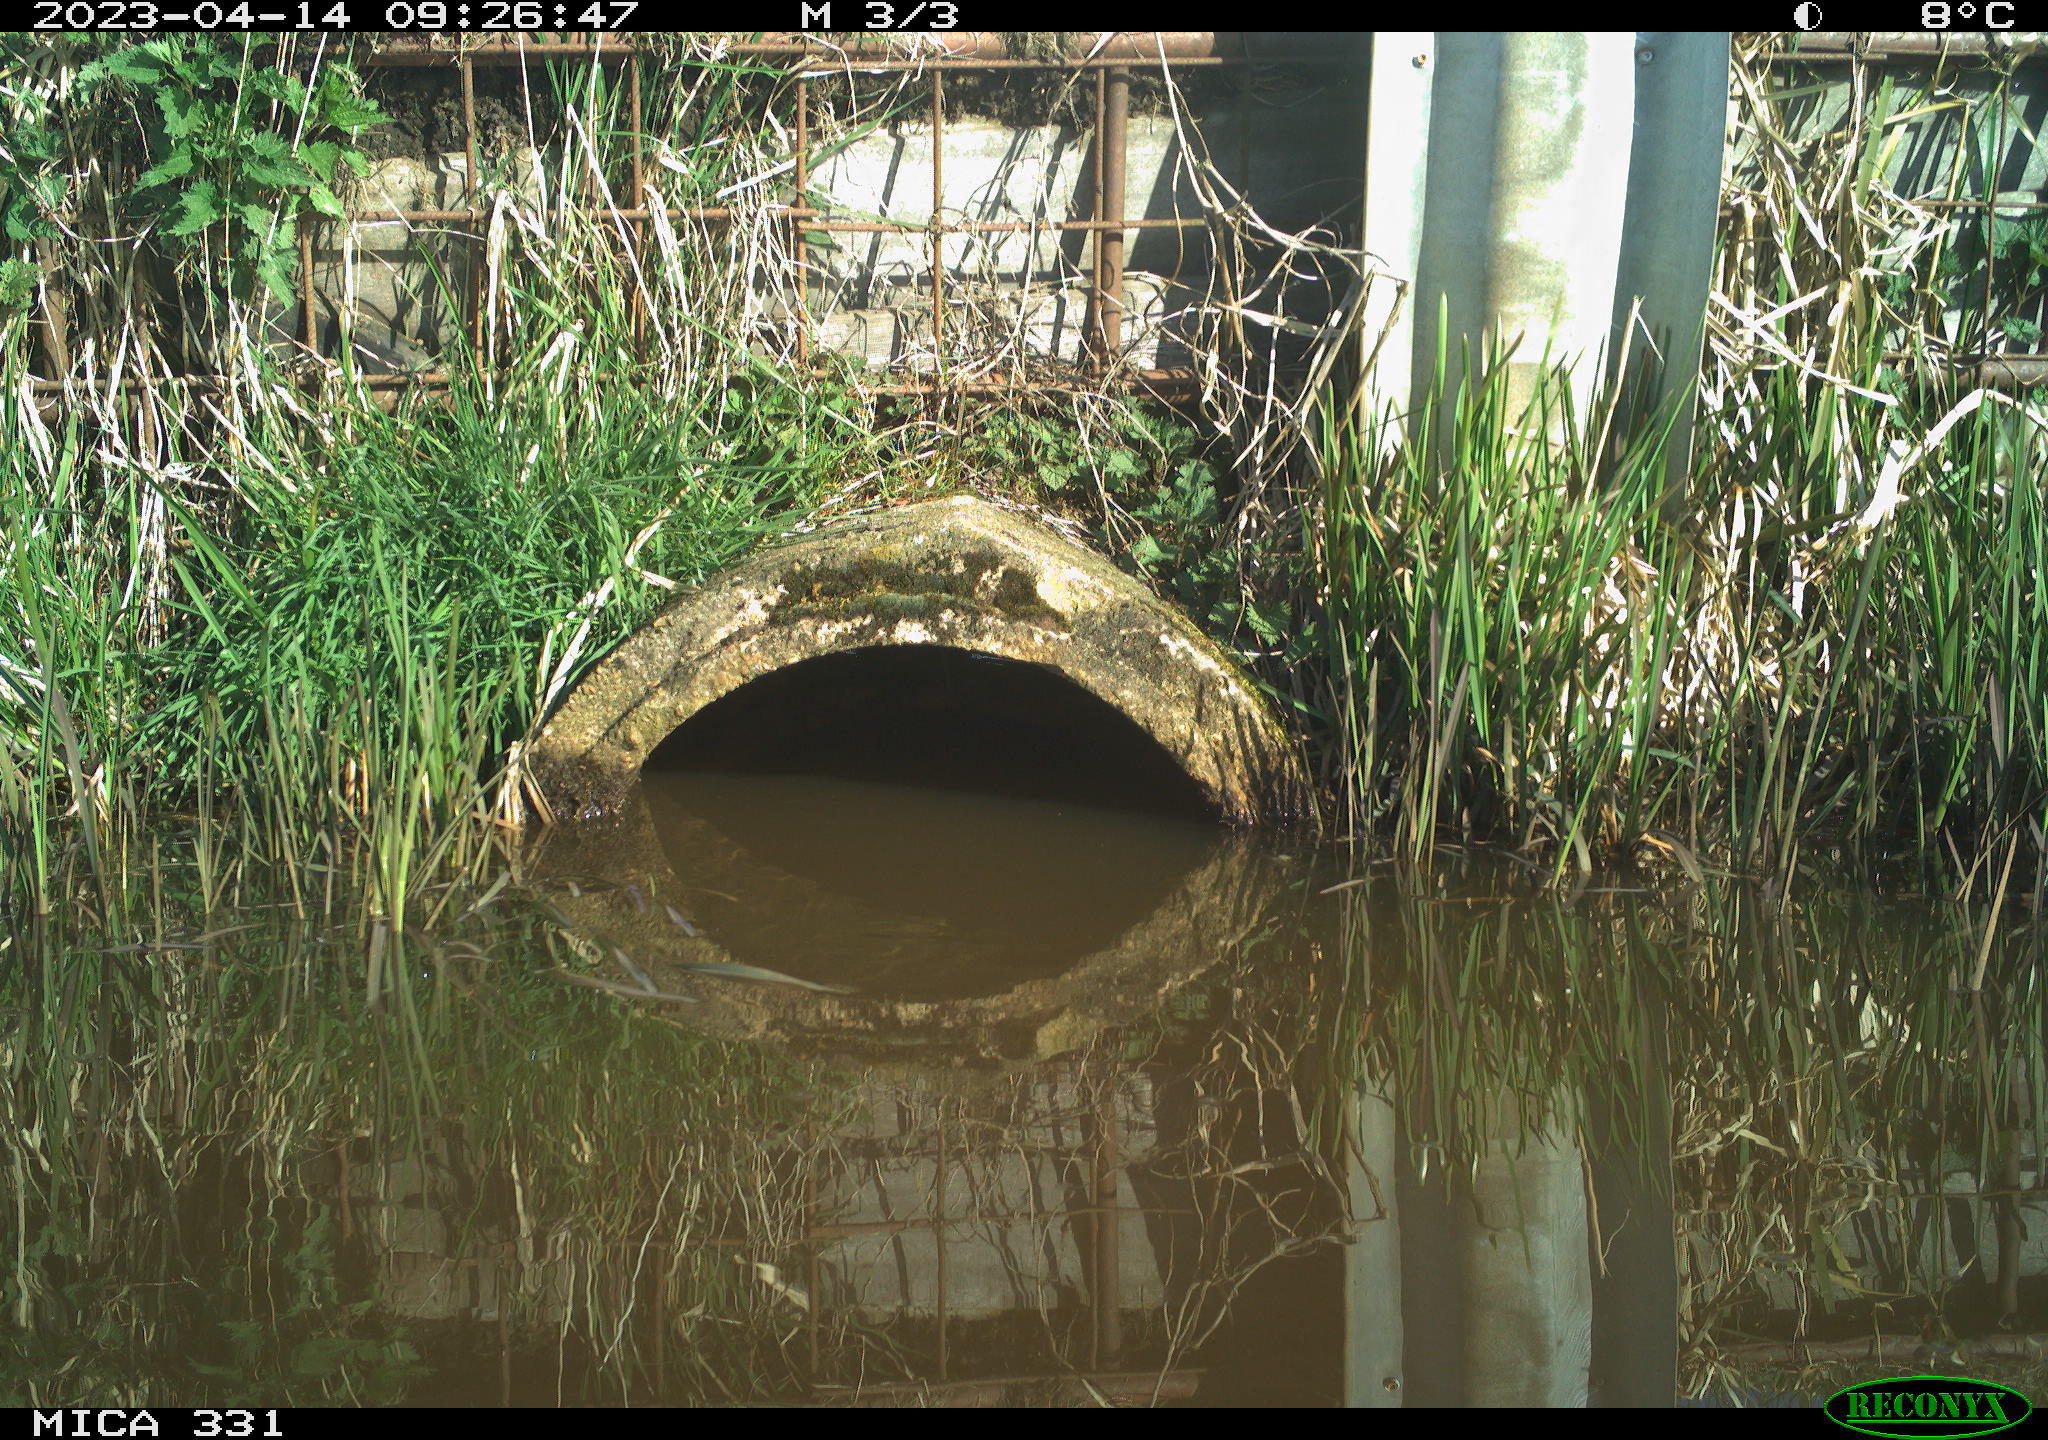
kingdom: Animalia
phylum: Chordata
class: Aves
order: Gruiformes
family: Rallidae
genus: Fulica
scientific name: Fulica atra
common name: Eurasian coot
